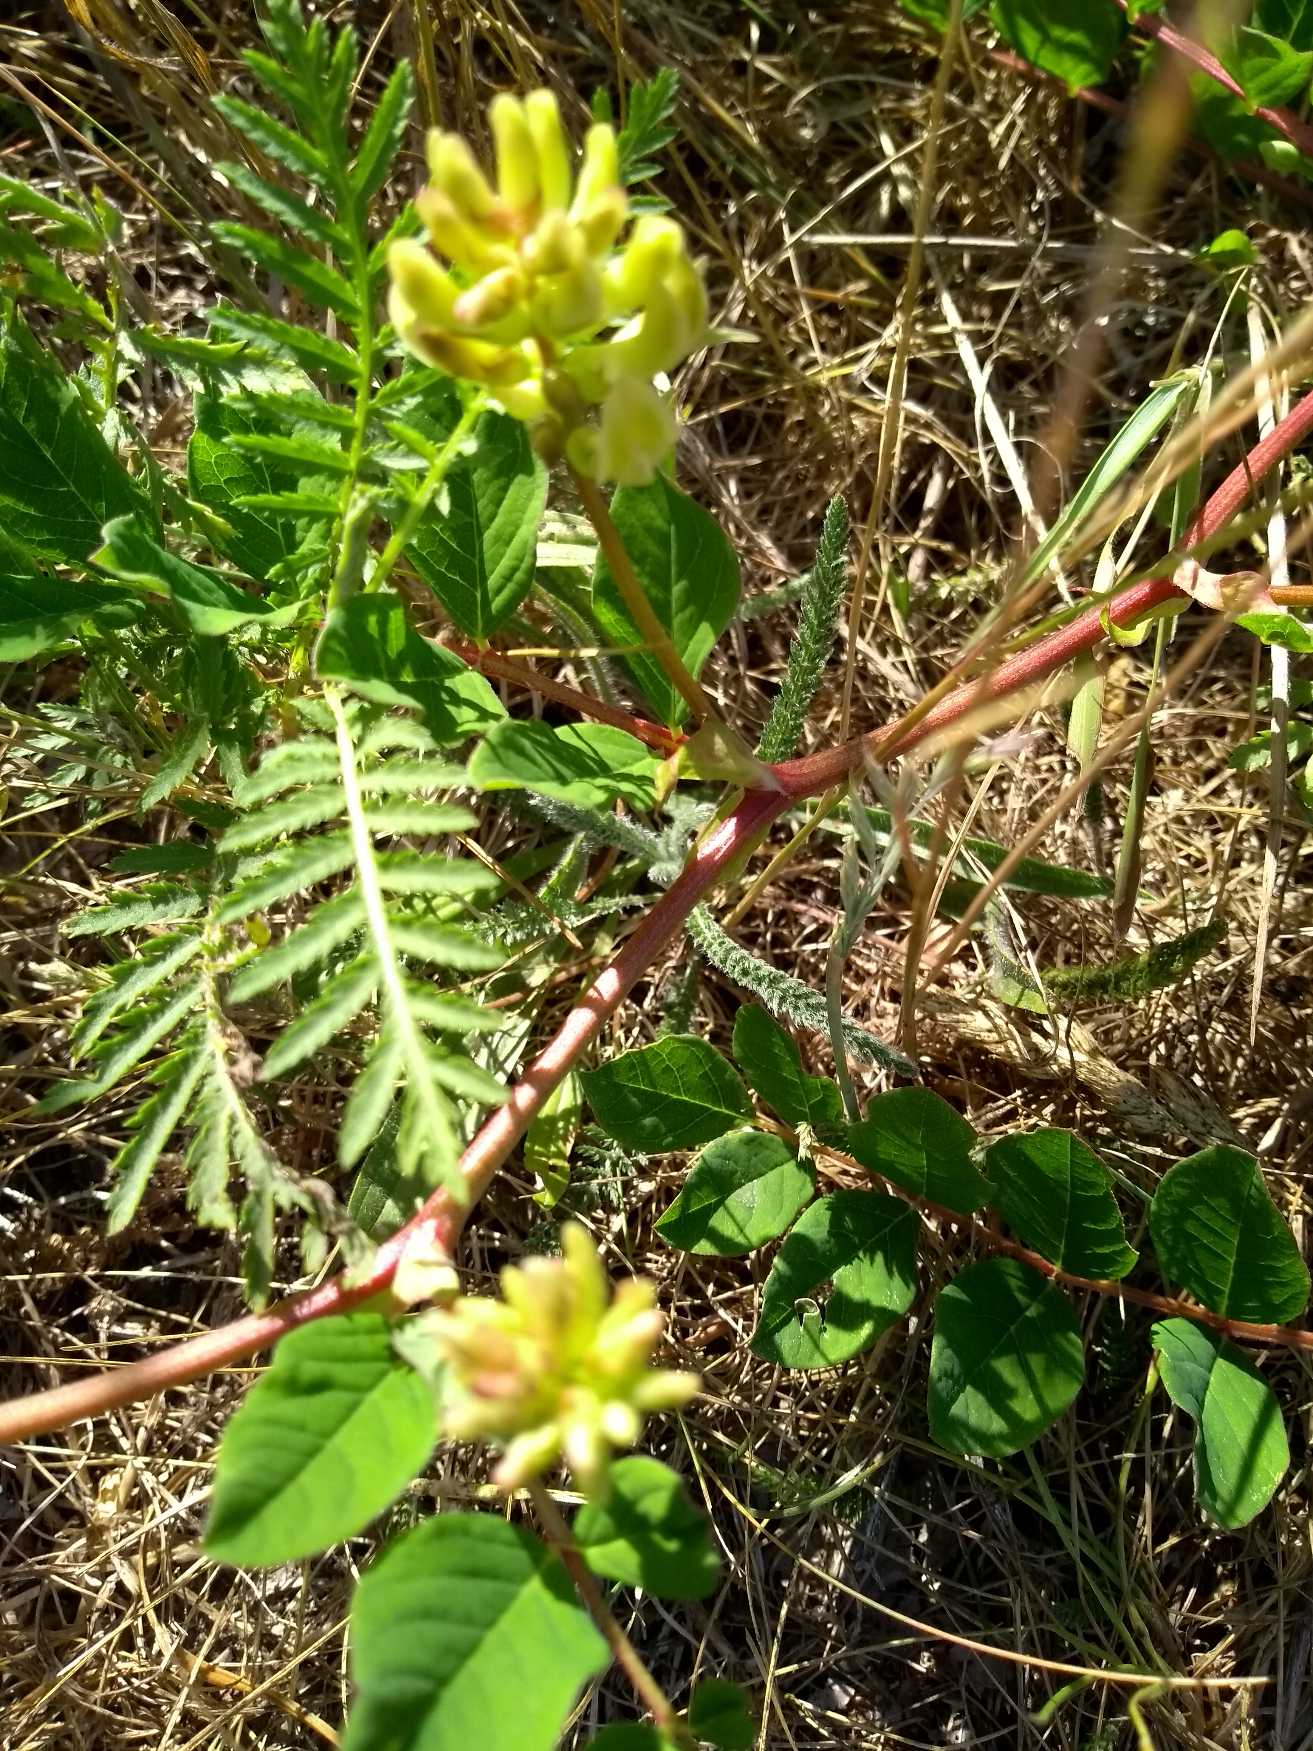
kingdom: Plantae
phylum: Tracheophyta
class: Magnoliopsida
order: Fabales
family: Fabaceae
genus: Astragalus
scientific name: Astragalus glycyphyllos
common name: Sød astragel
